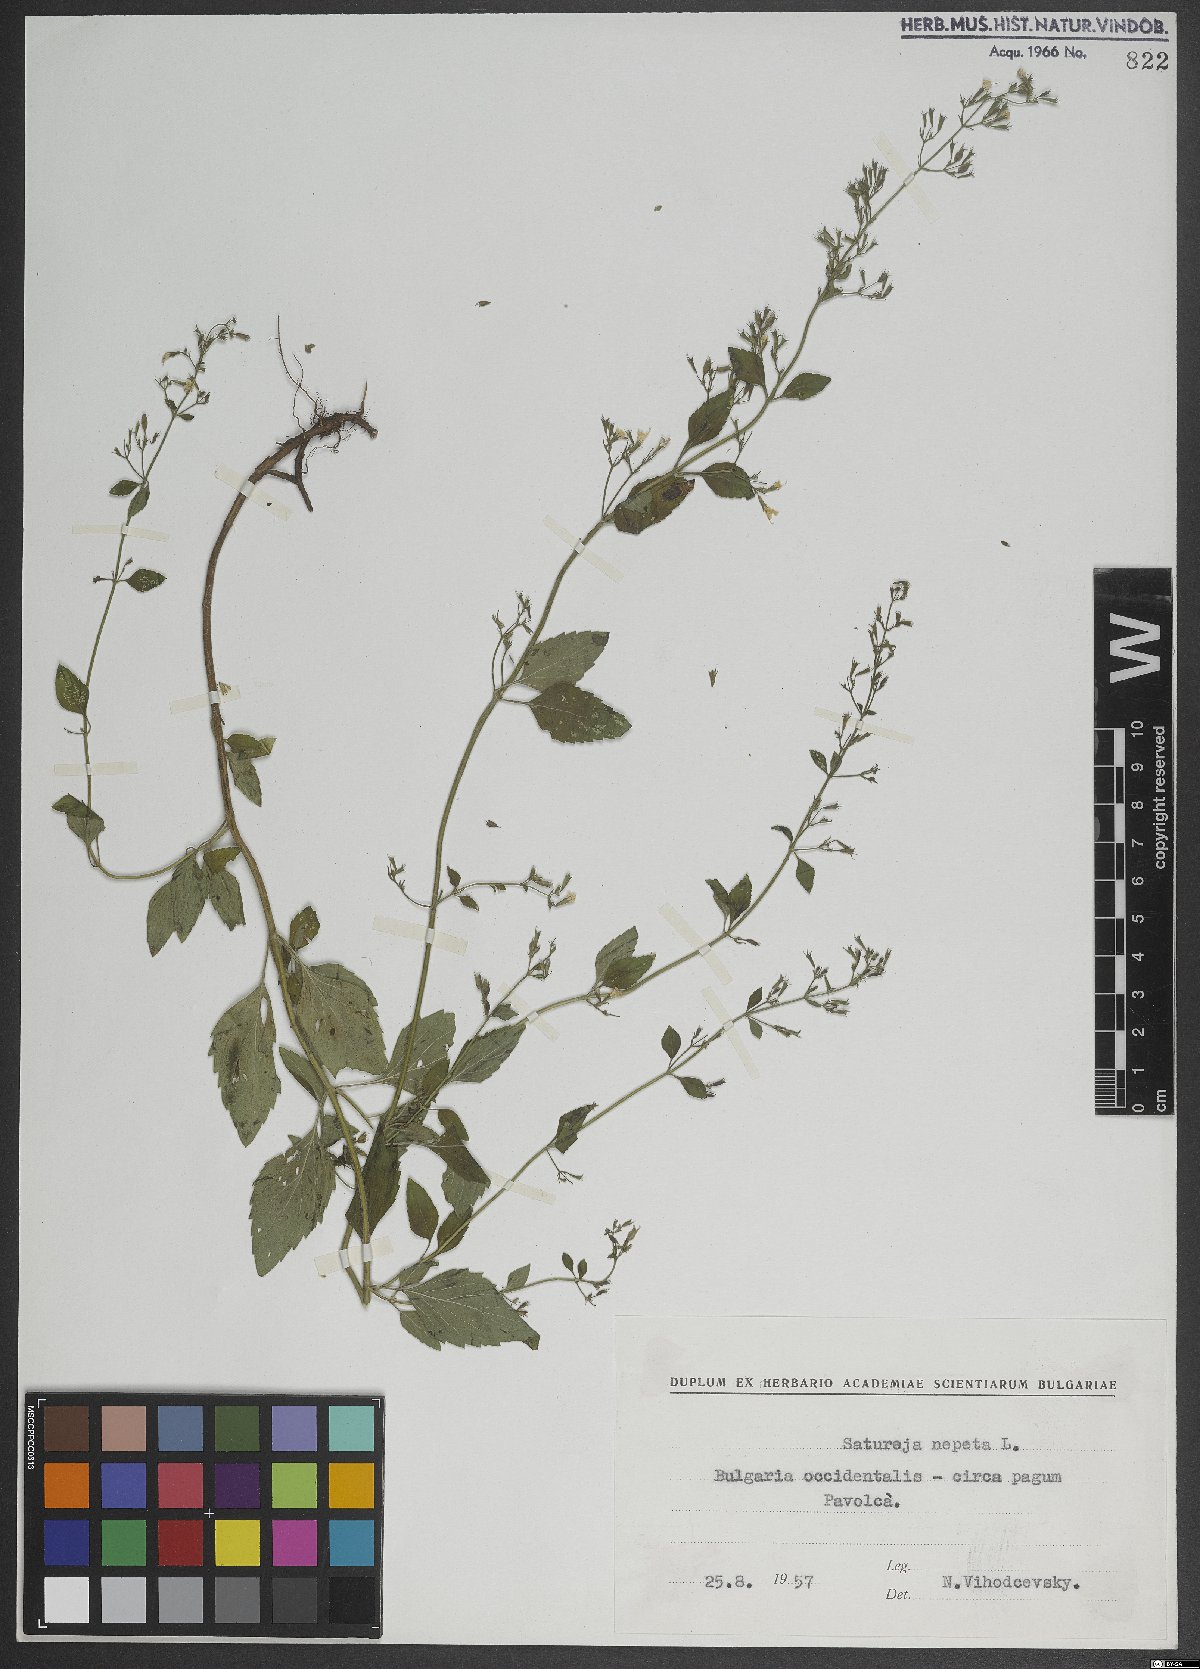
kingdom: Plantae
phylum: Tracheophyta
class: Magnoliopsida
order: Lamiales
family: Lamiaceae
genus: Clinopodium
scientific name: Clinopodium nepeta
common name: Lesser calamint
